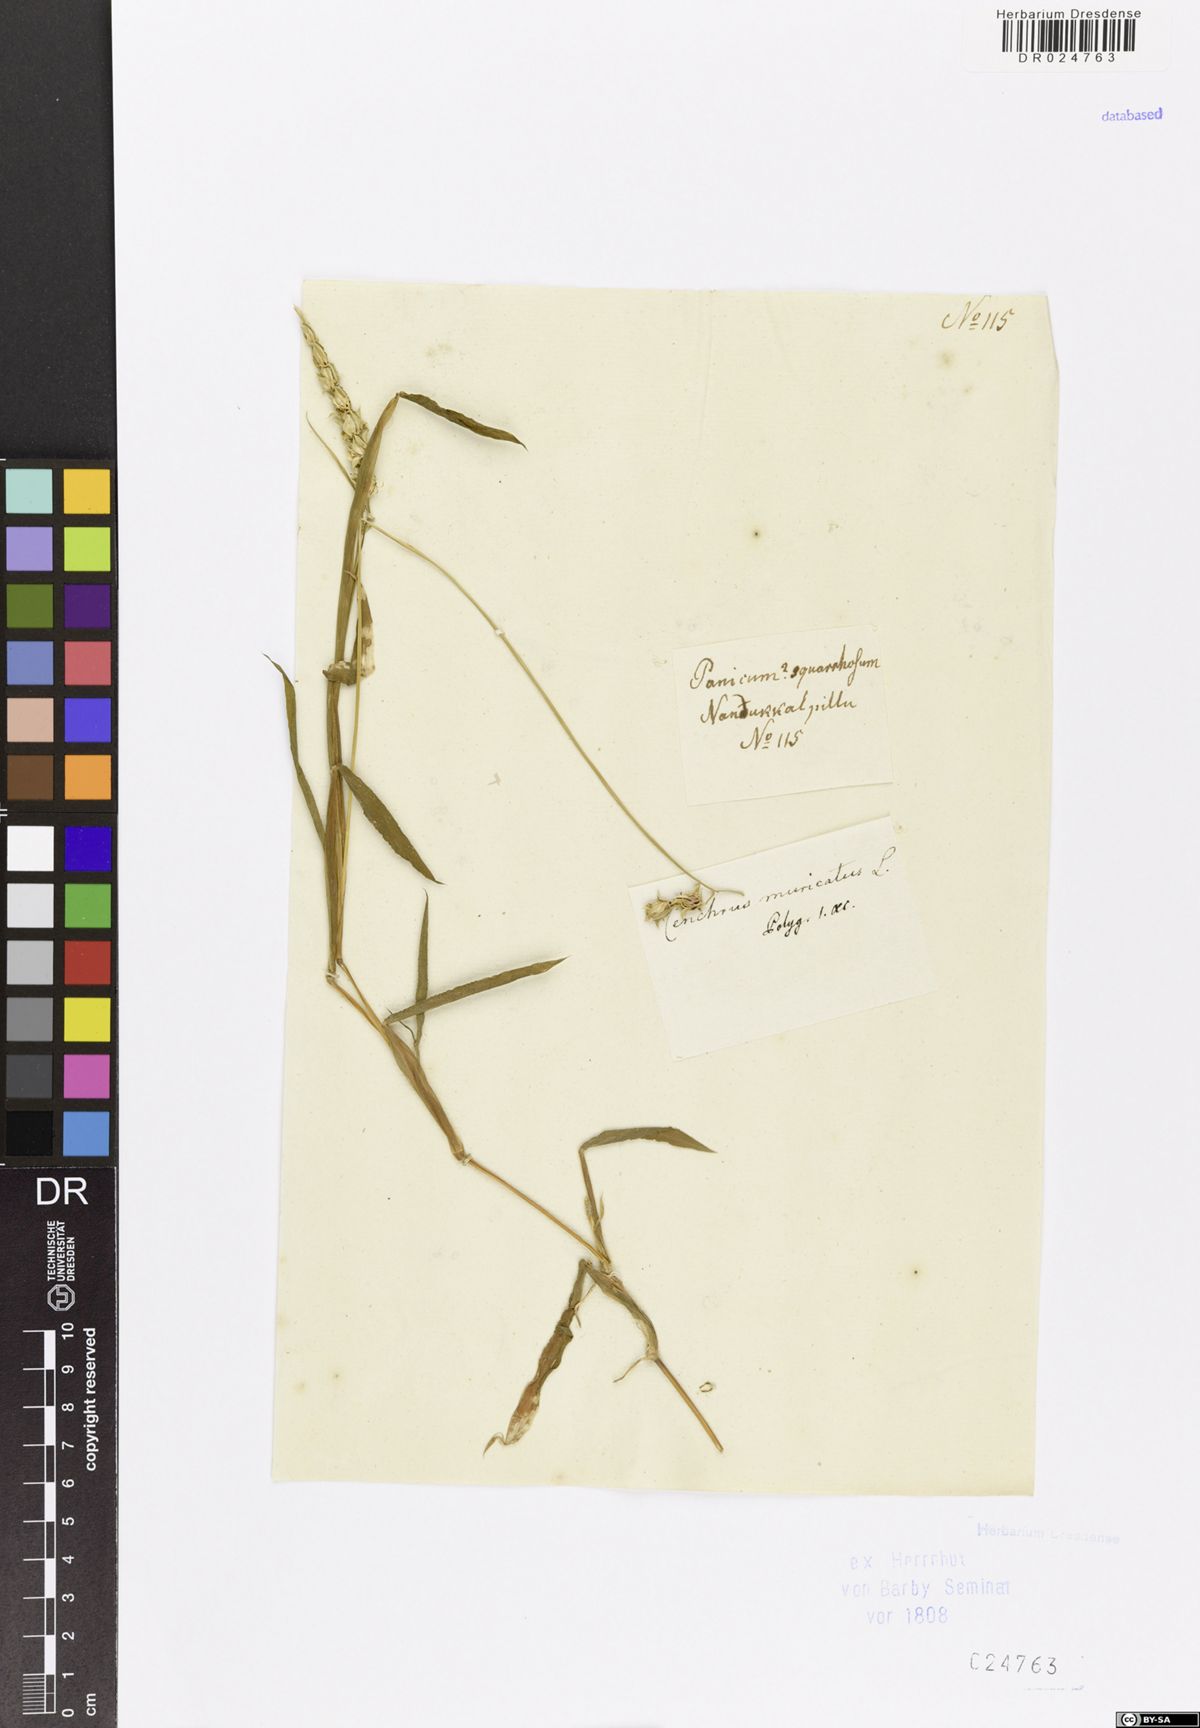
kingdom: Plantae
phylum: Tracheophyta
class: Liliopsida
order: Poales
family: Poaceae
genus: Trachys
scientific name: Trachys muricata
